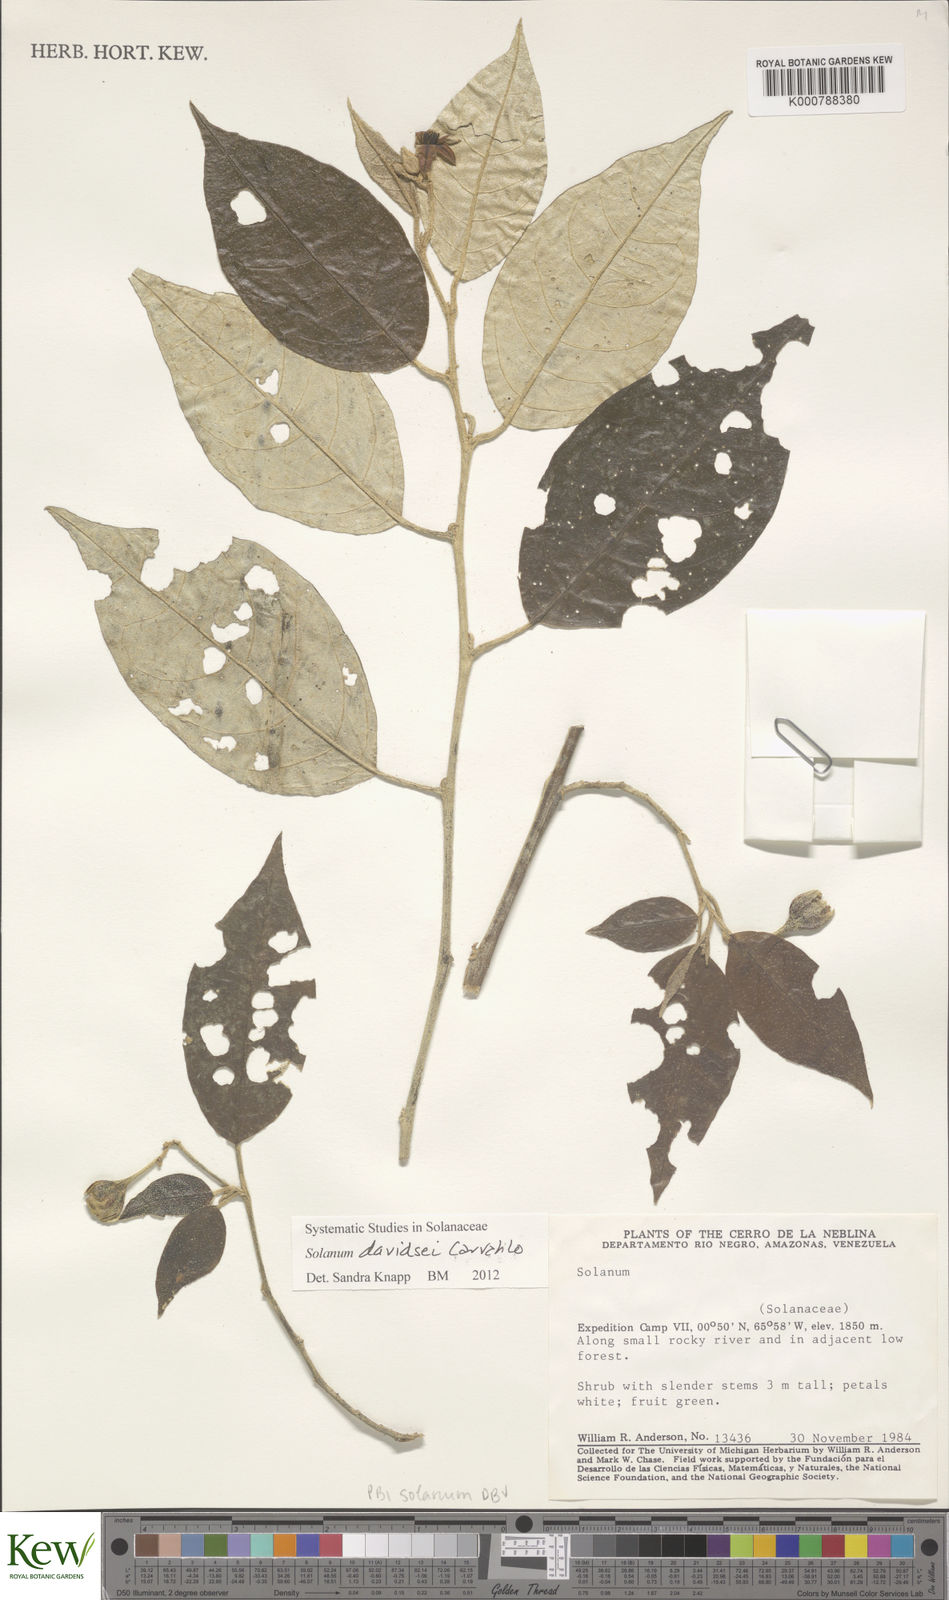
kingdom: Plantae
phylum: Tracheophyta
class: Magnoliopsida
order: Solanales
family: Solanaceae
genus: Solanum
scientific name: Solanum davidsei
